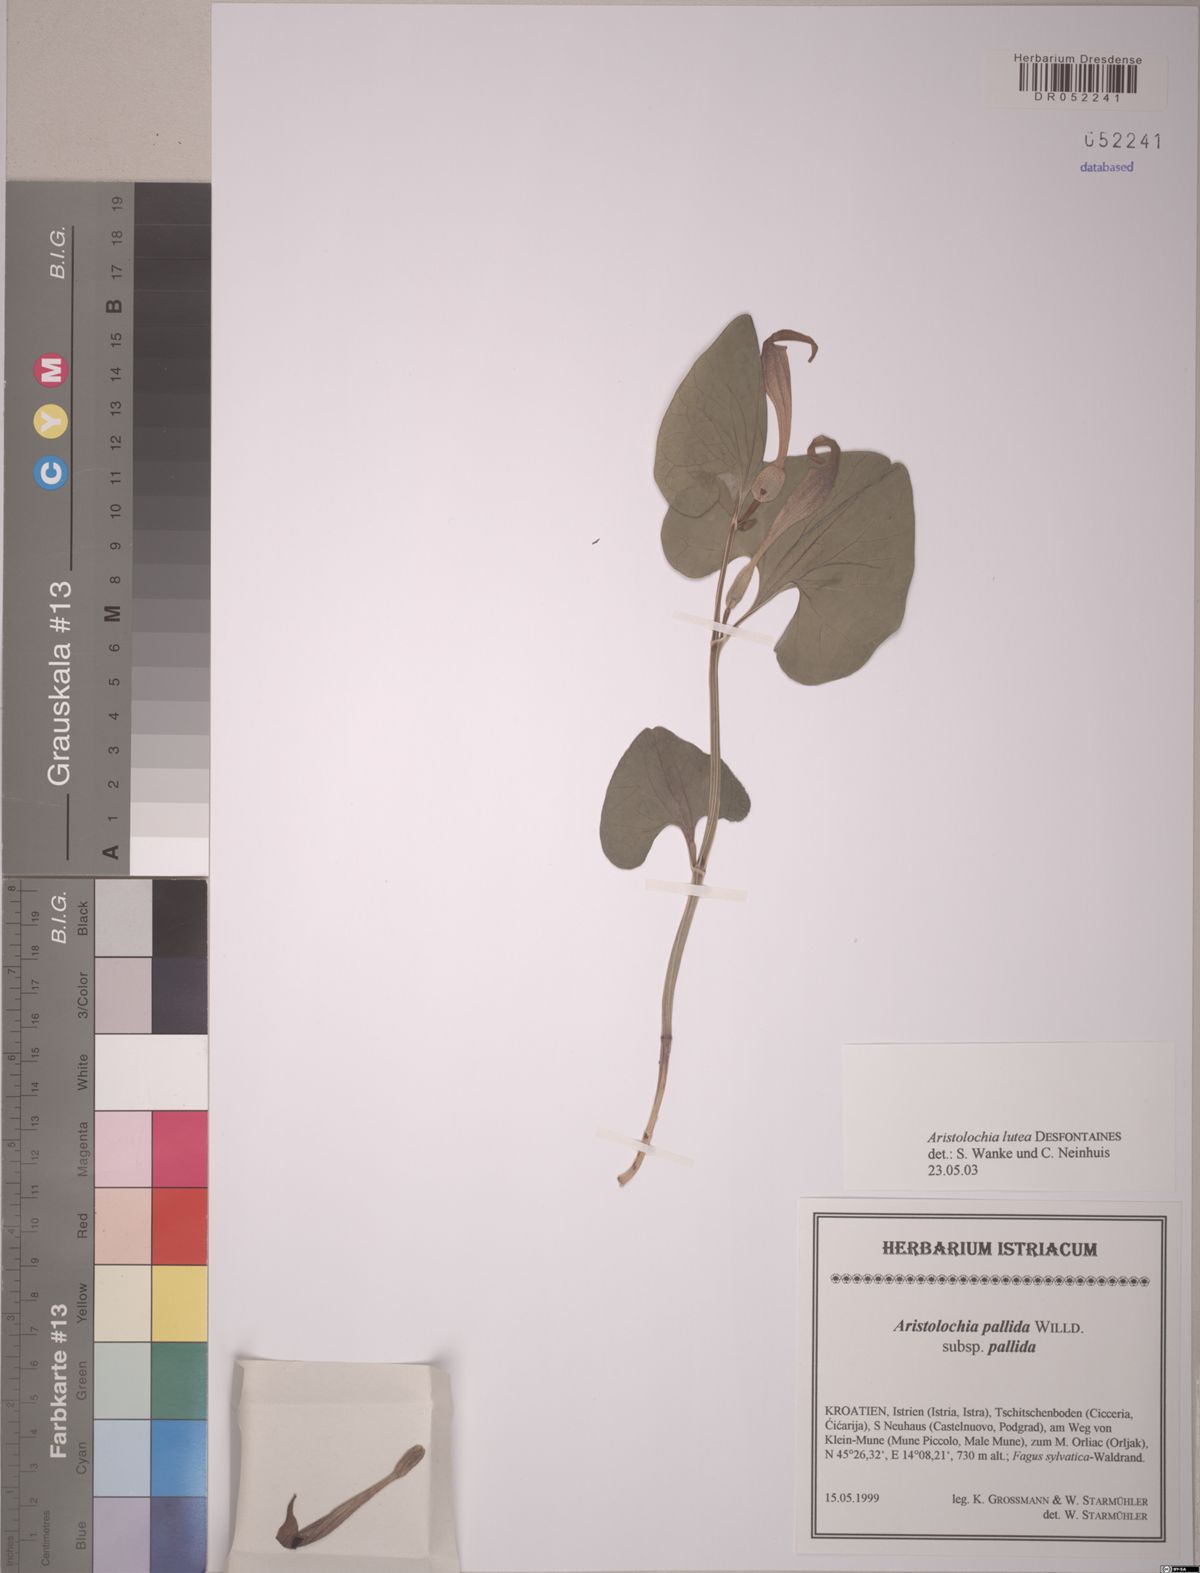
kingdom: Plantae
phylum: Tracheophyta
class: Magnoliopsida
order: Piperales
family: Aristolochiaceae
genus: Aristolochia
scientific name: Aristolochia lutea
